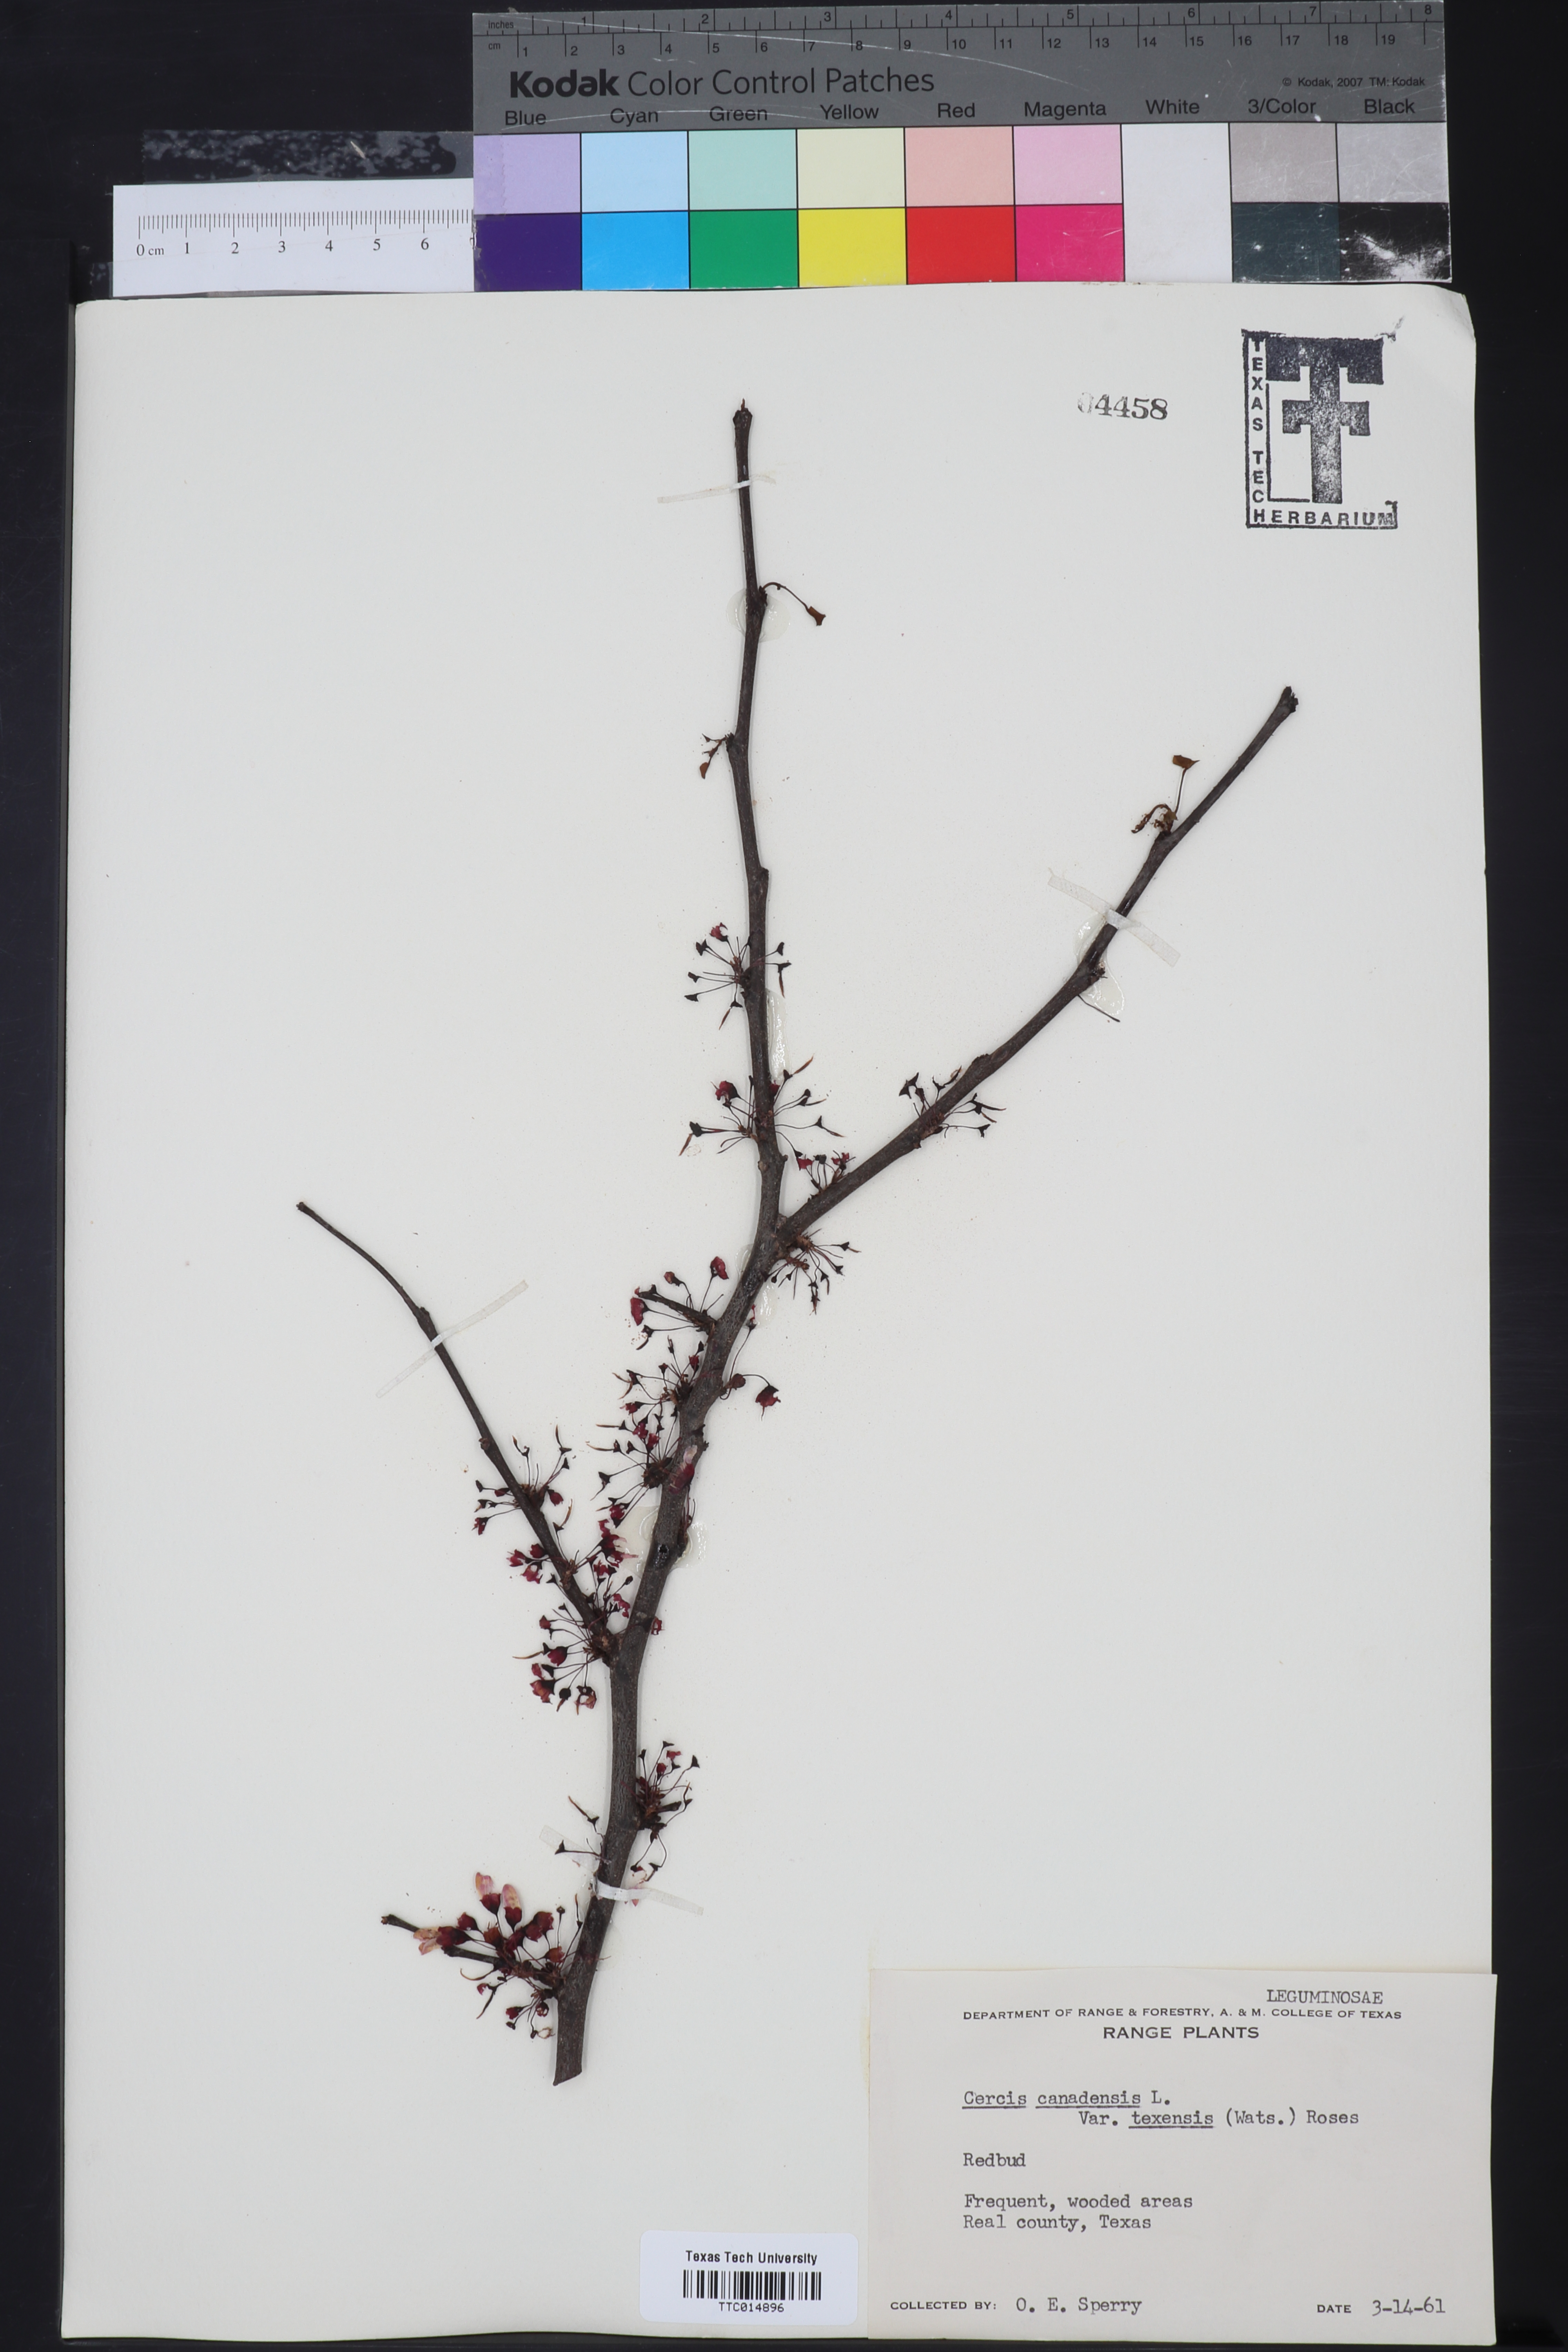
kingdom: Plantae
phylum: Tracheophyta
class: Magnoliopsida
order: Fabales
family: Fabaceae
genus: Cercis
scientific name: Cercis canadensis
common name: Eastern redbud
